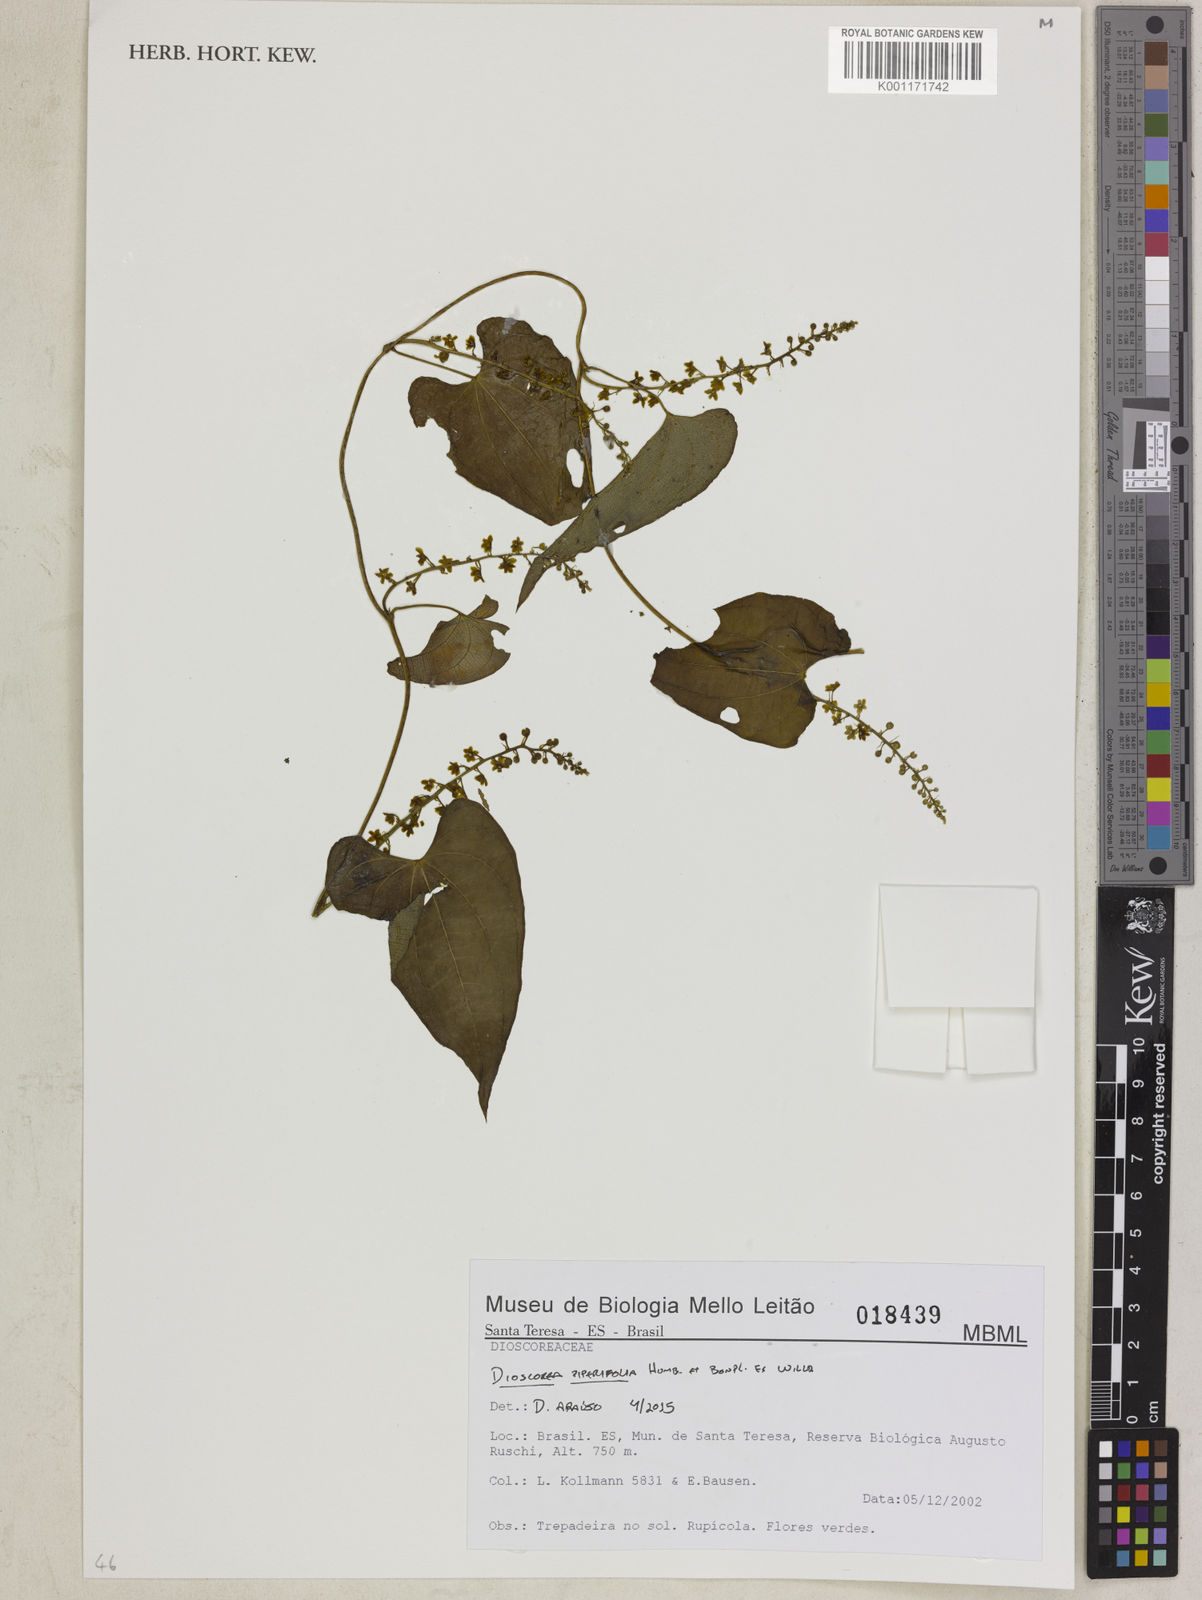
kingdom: Plantae
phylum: Tracheophyta
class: Liliopsida
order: Dioscoreales
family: Dioscoreaceae
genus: Dioscorea
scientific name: Dioscorea piperifolia
